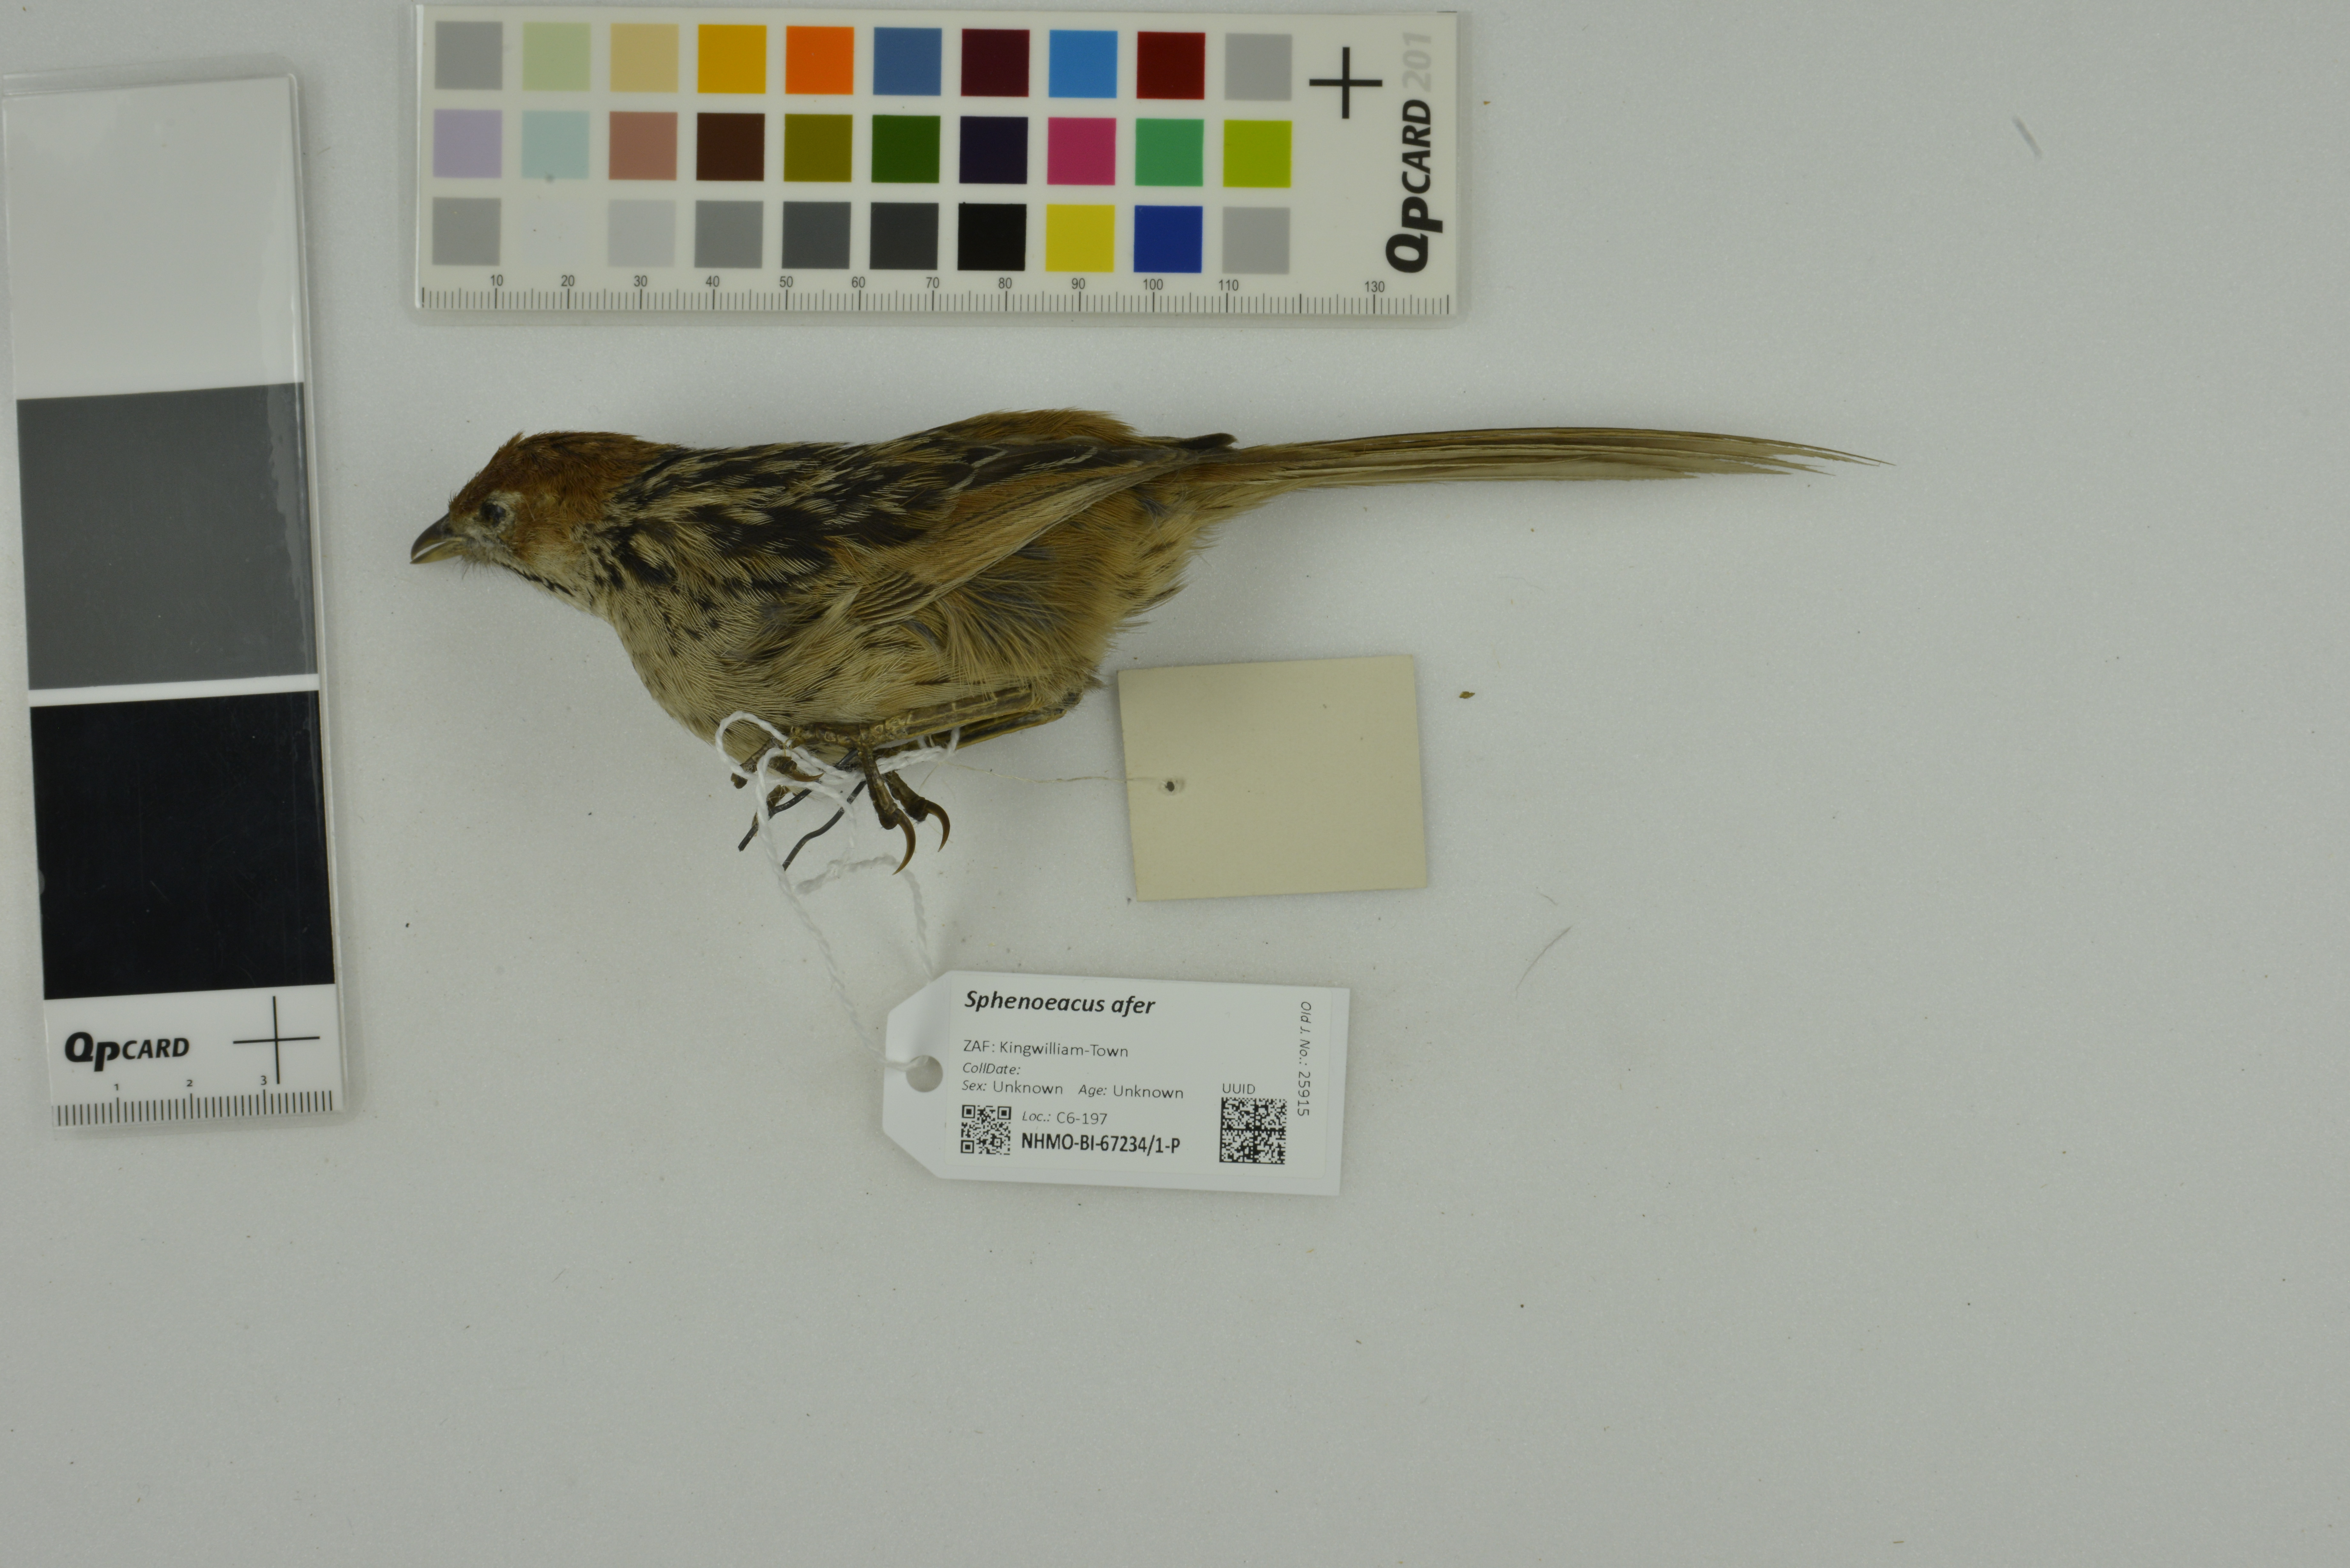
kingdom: Animalia
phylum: Chordata
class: Aves
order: Passeriformes
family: Macrosphenidae
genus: Sphenoeacus
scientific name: Sphenoeacus afer
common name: Cape grassbird
